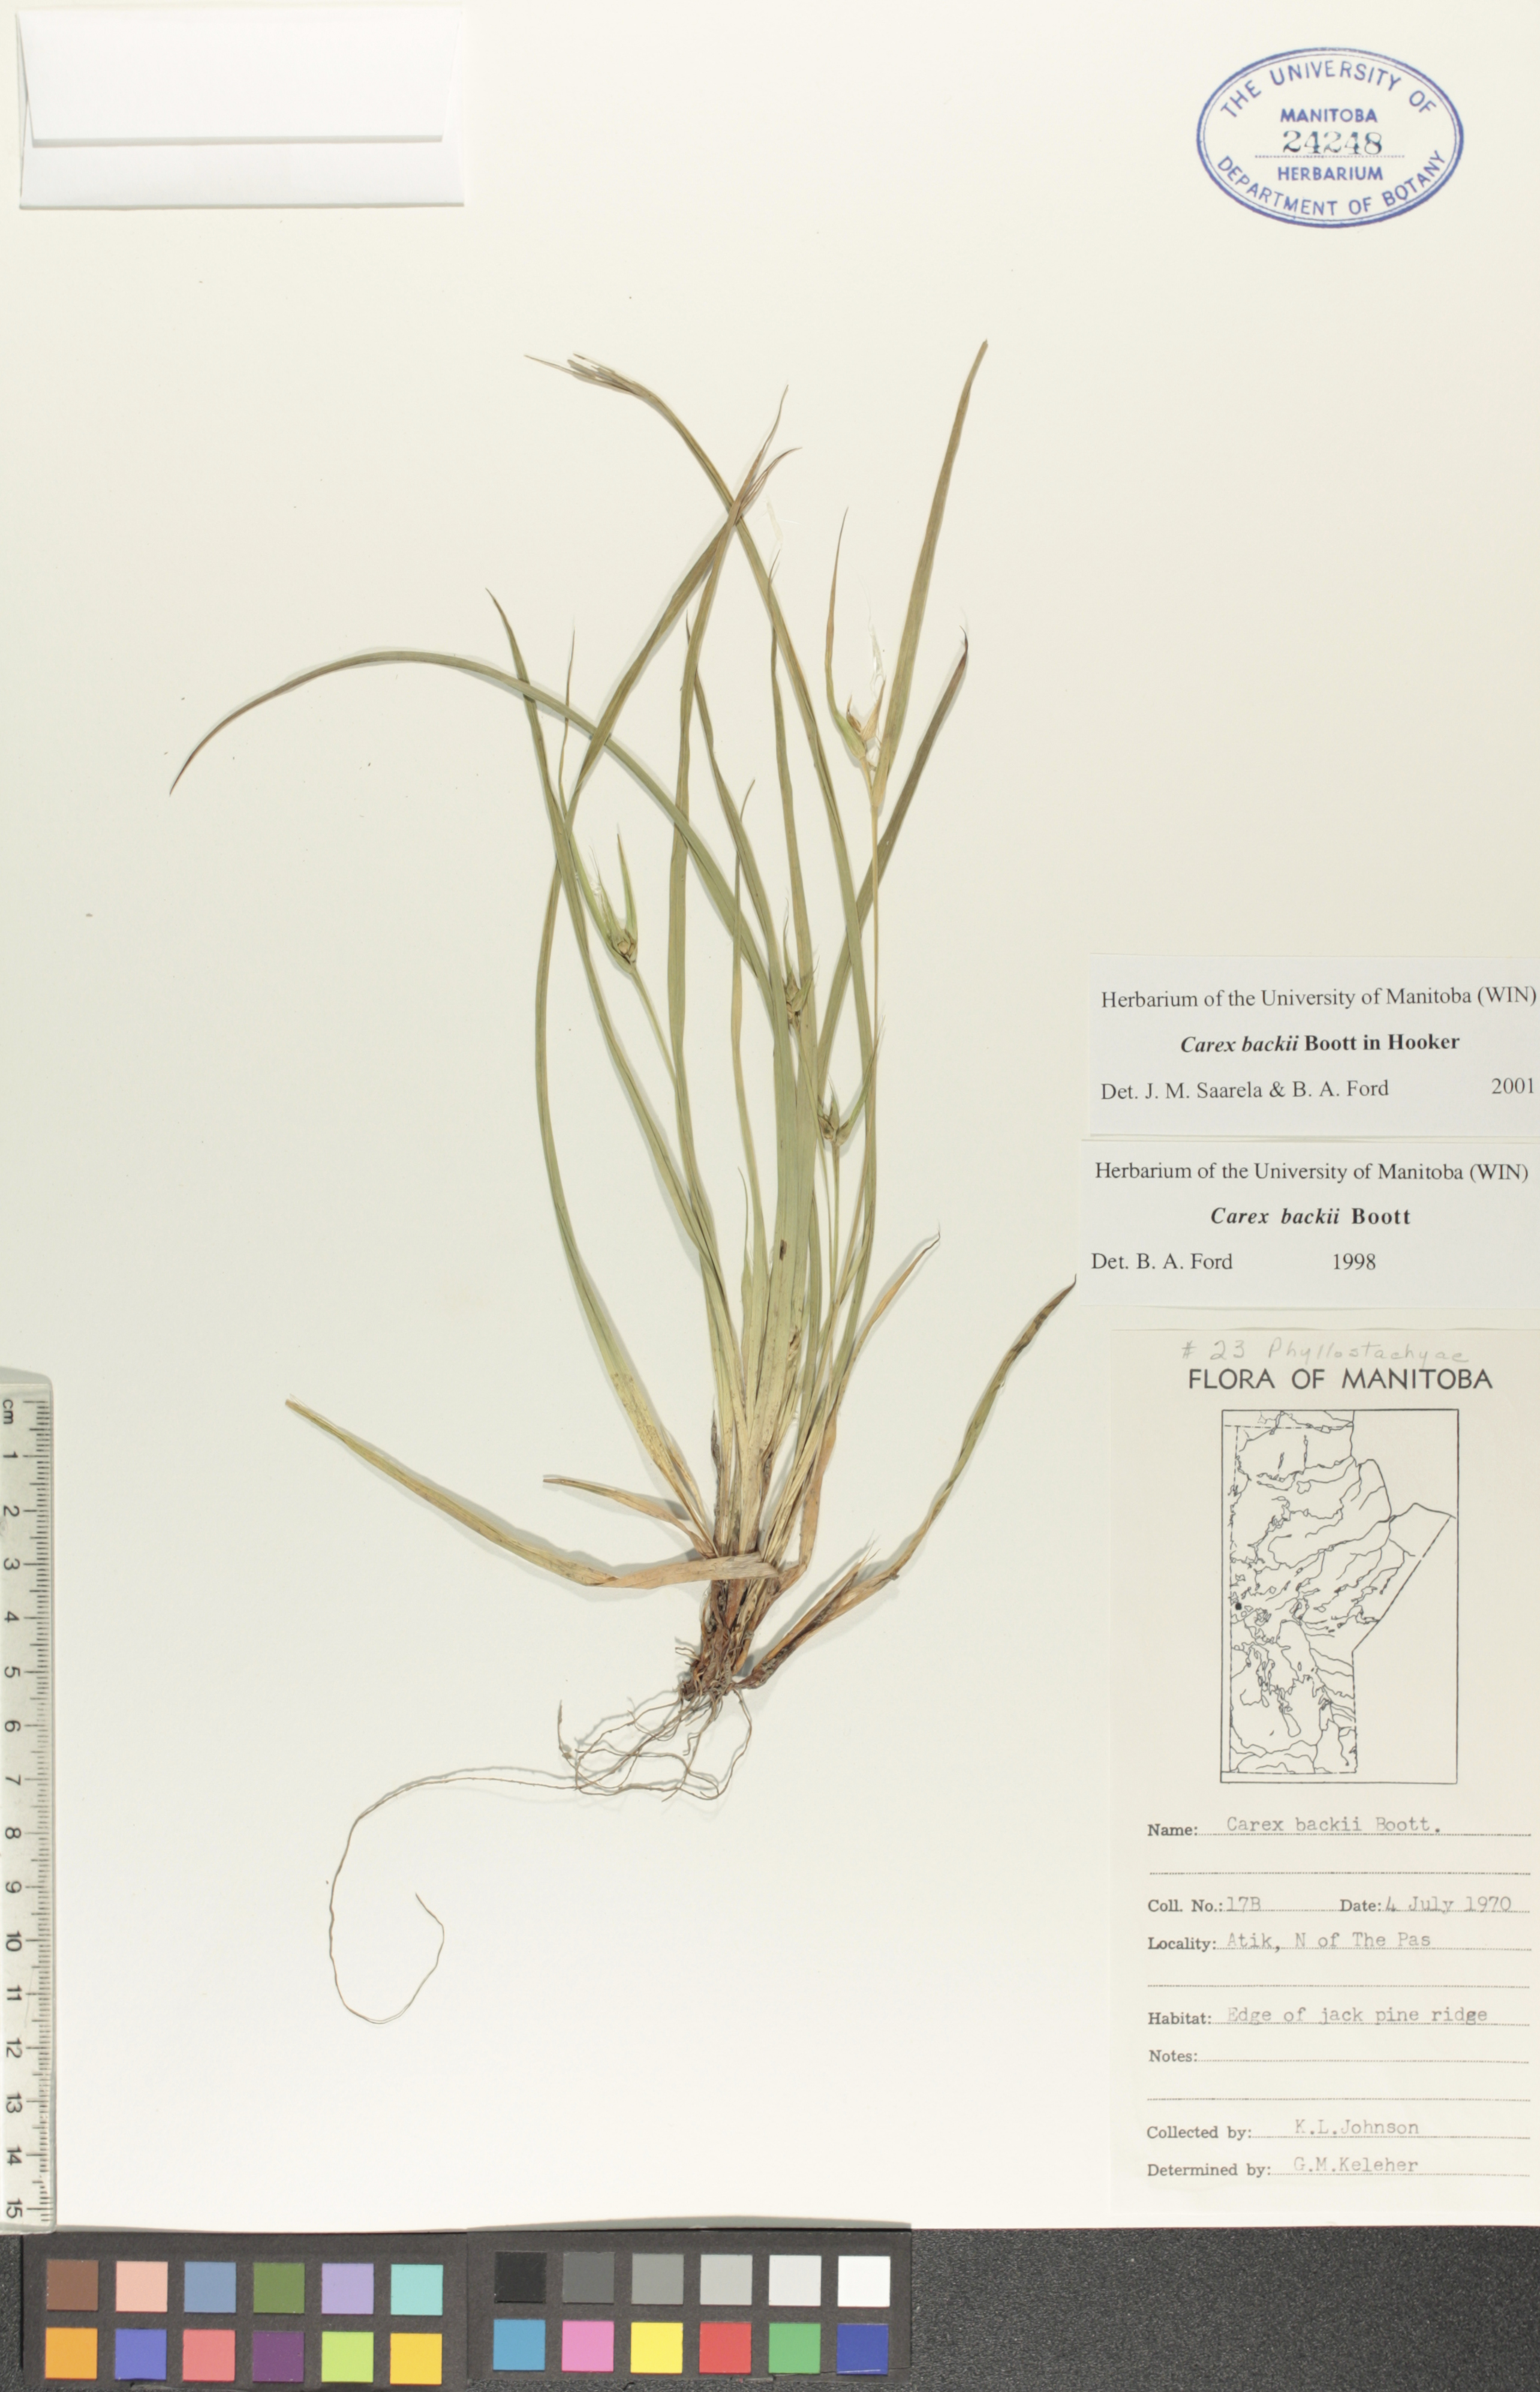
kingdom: Plantae
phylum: Tracheophyta
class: Liliopsida
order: Poales
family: Cyperaceae
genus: Carex
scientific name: Carex backii
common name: Back's sedge
